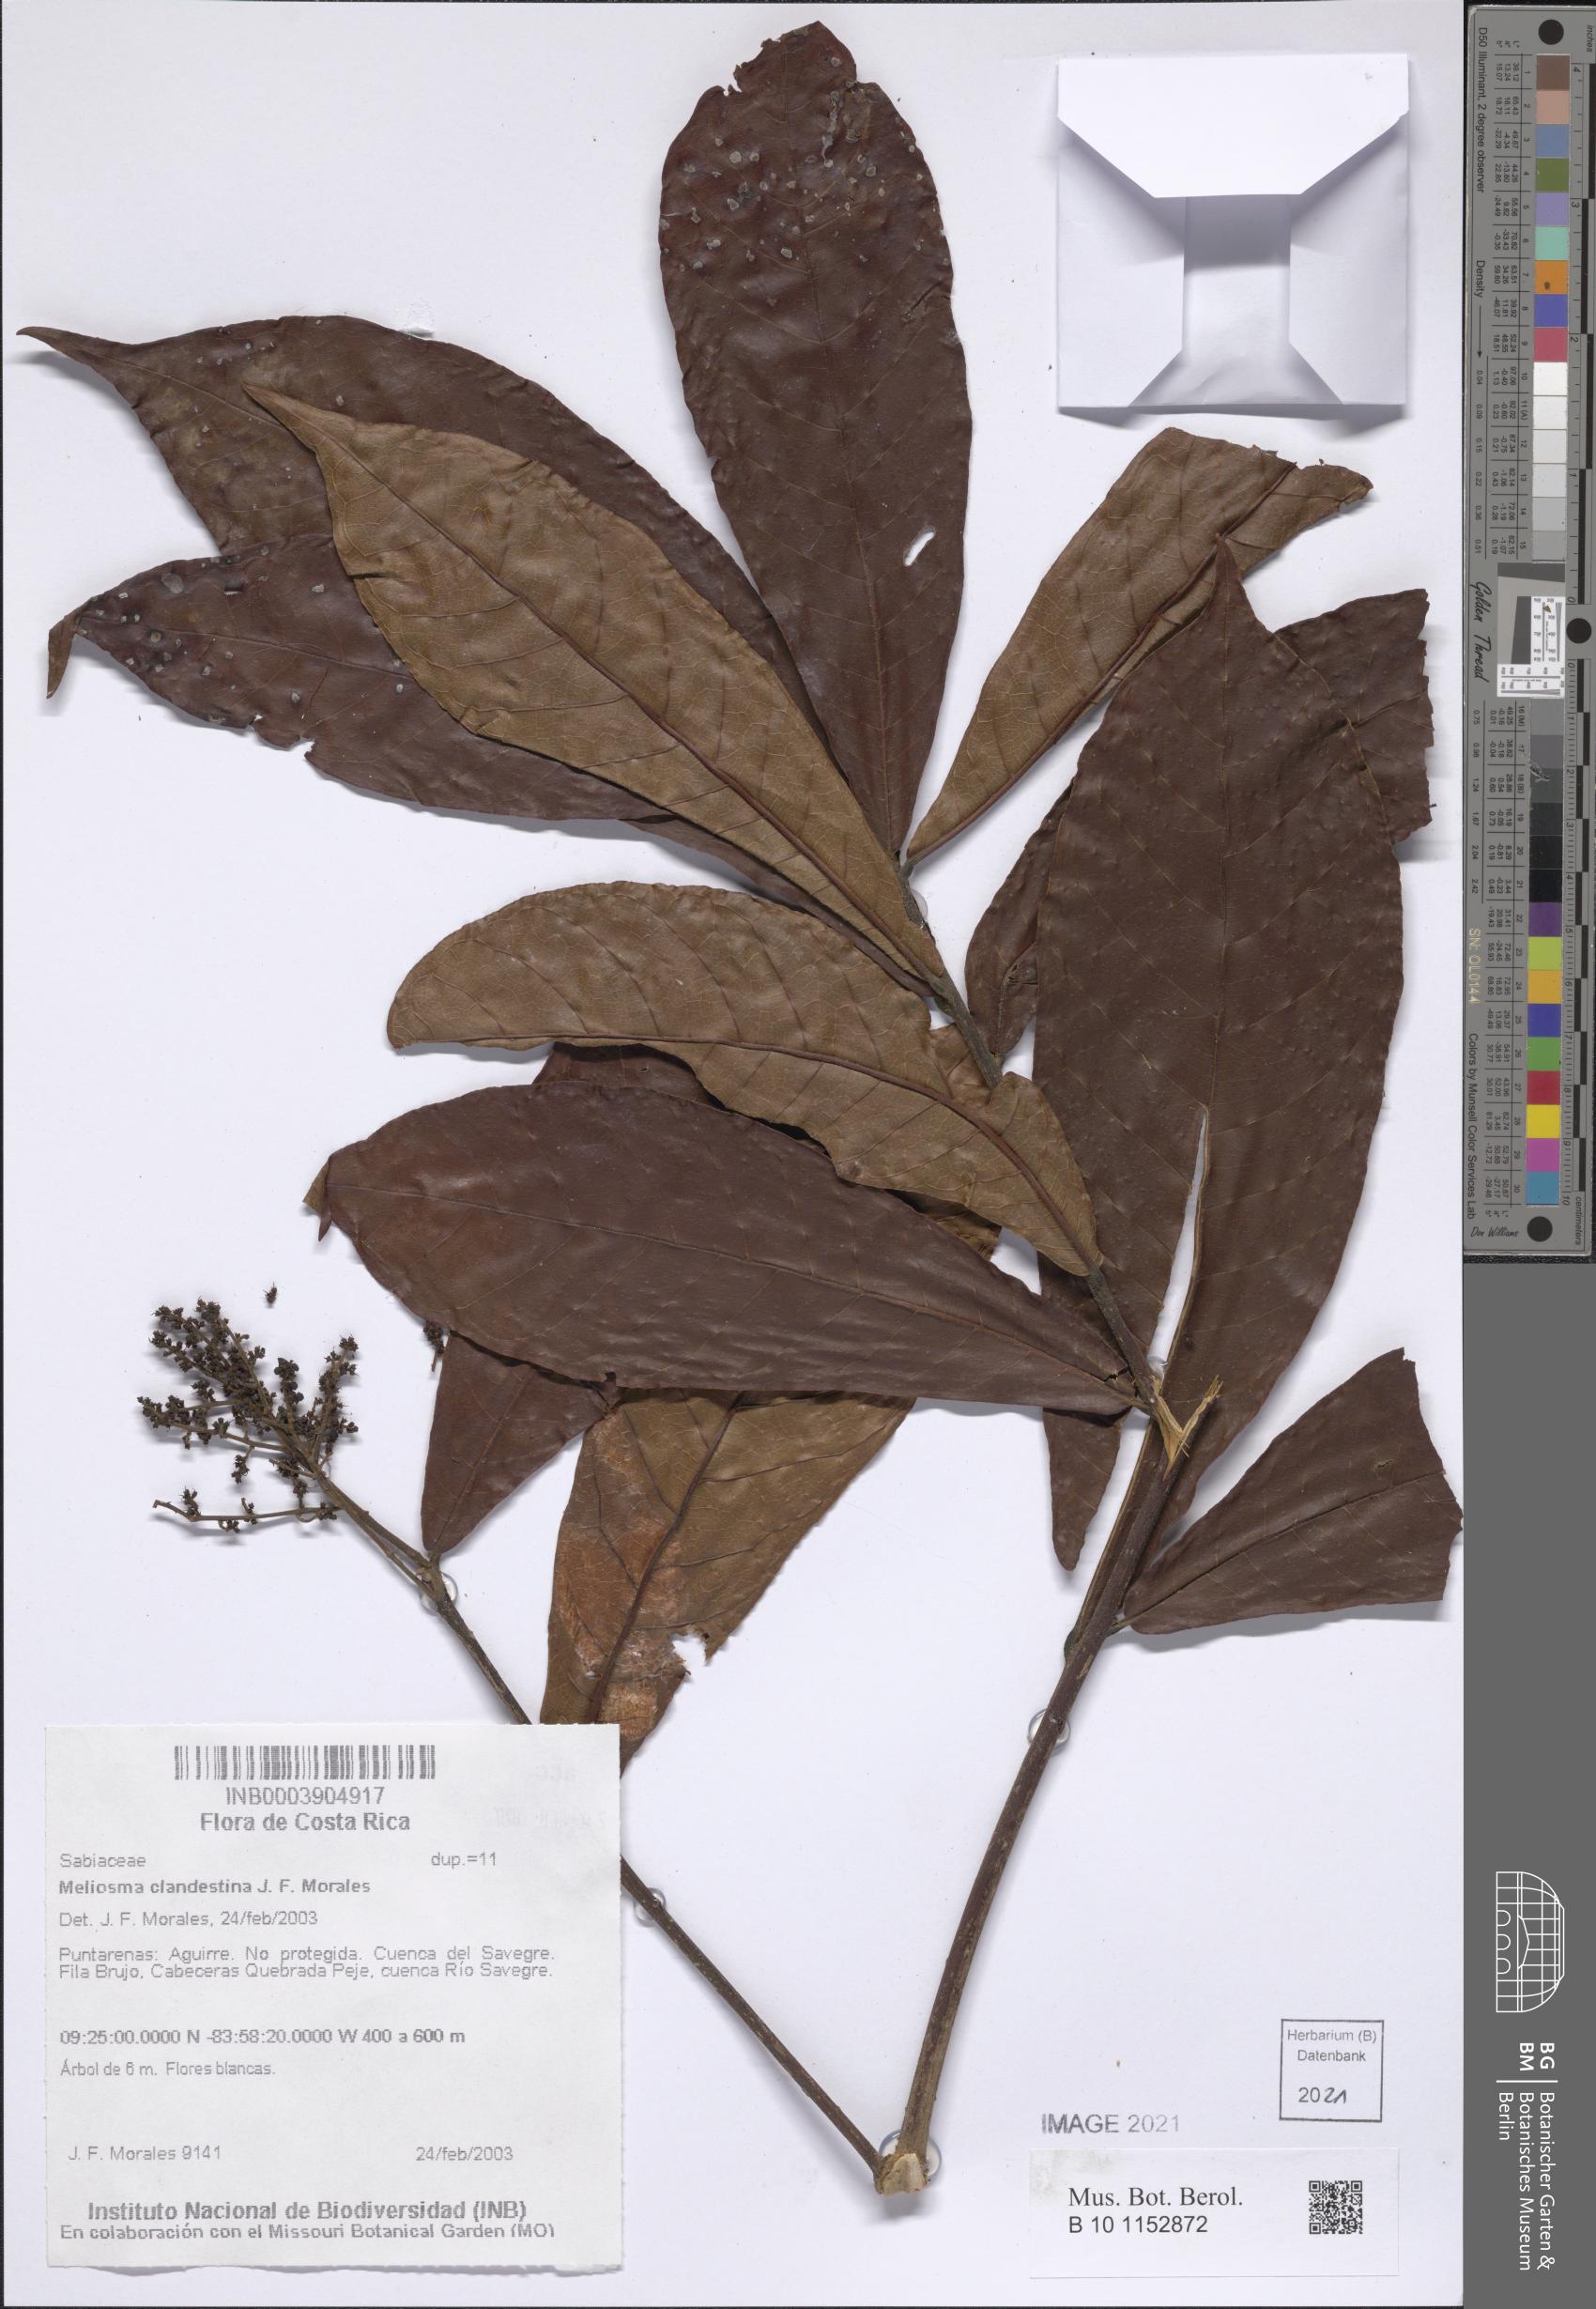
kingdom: Plantae
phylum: Tracheophyta
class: Magnoliopsida
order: Proteales
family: Sabiaceae
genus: Meliosma
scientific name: Meliosma clandestina
